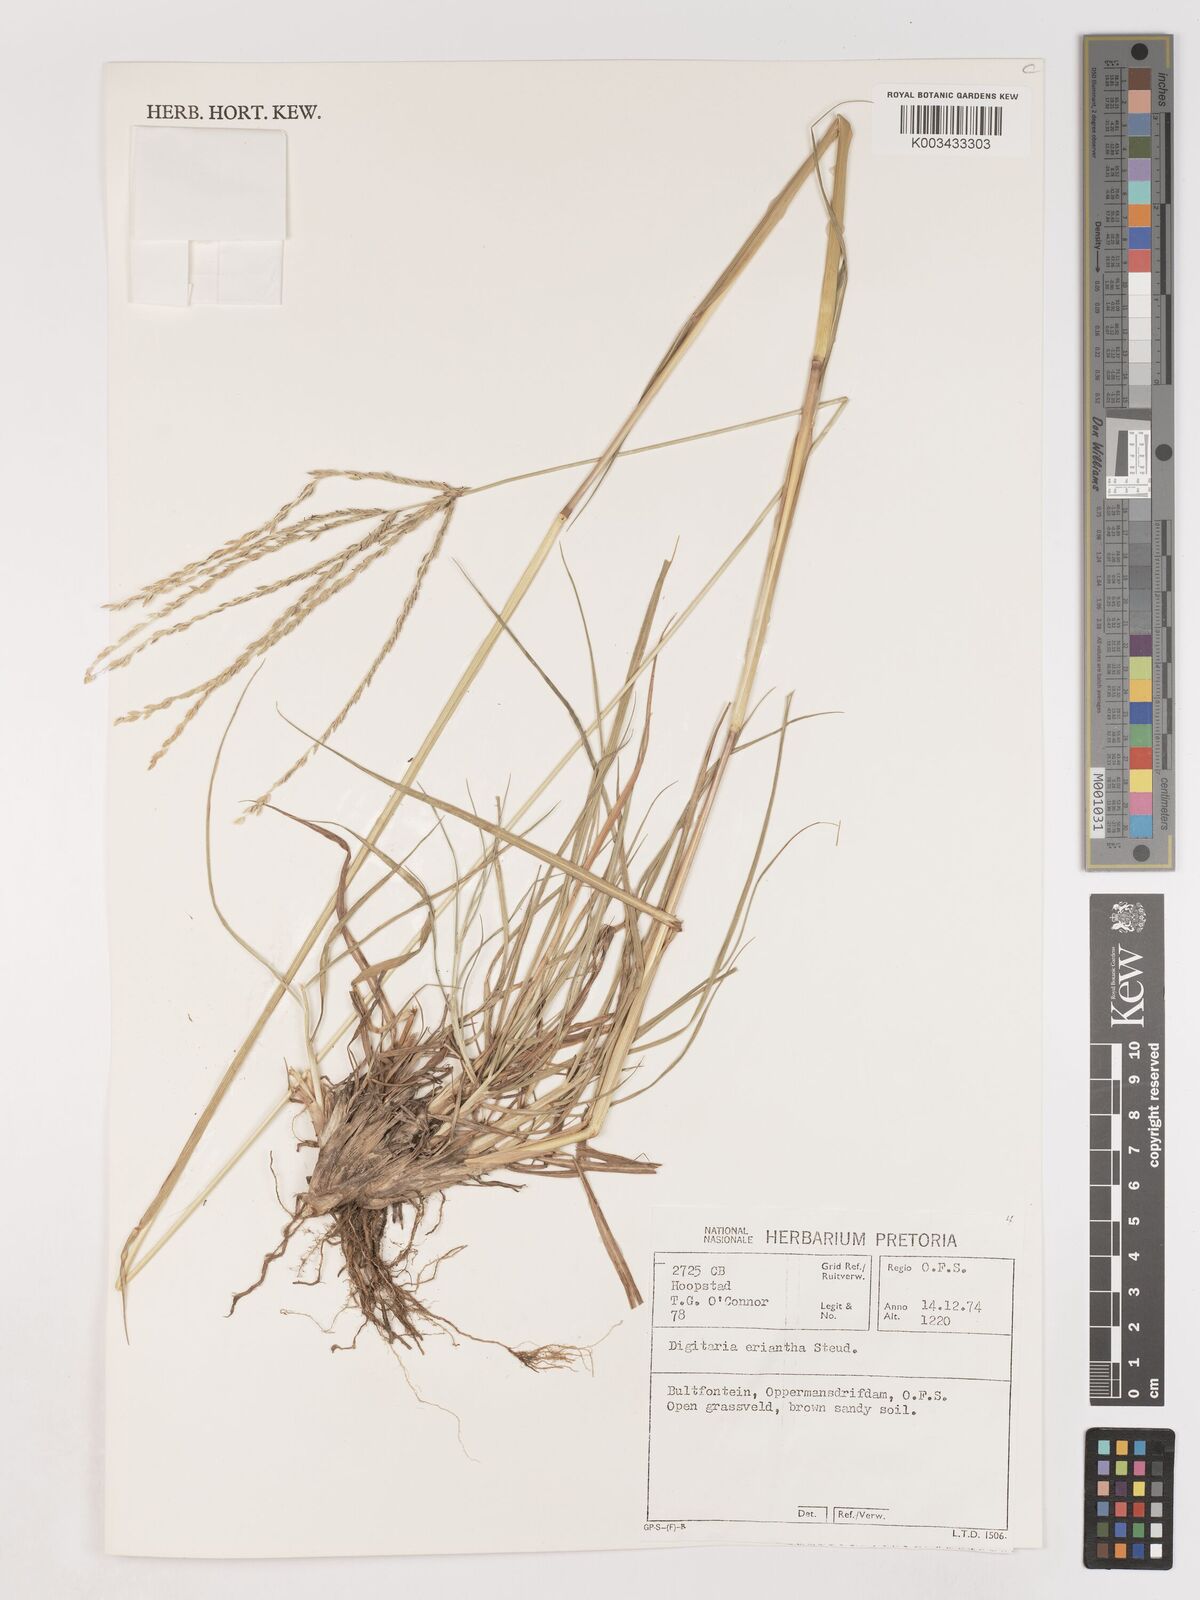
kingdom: Plantae
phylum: Tracheophyta
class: Liliopsida
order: Poales
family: Poaceae
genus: Digitaria
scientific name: Digitaria eriantha
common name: Digitgrass
